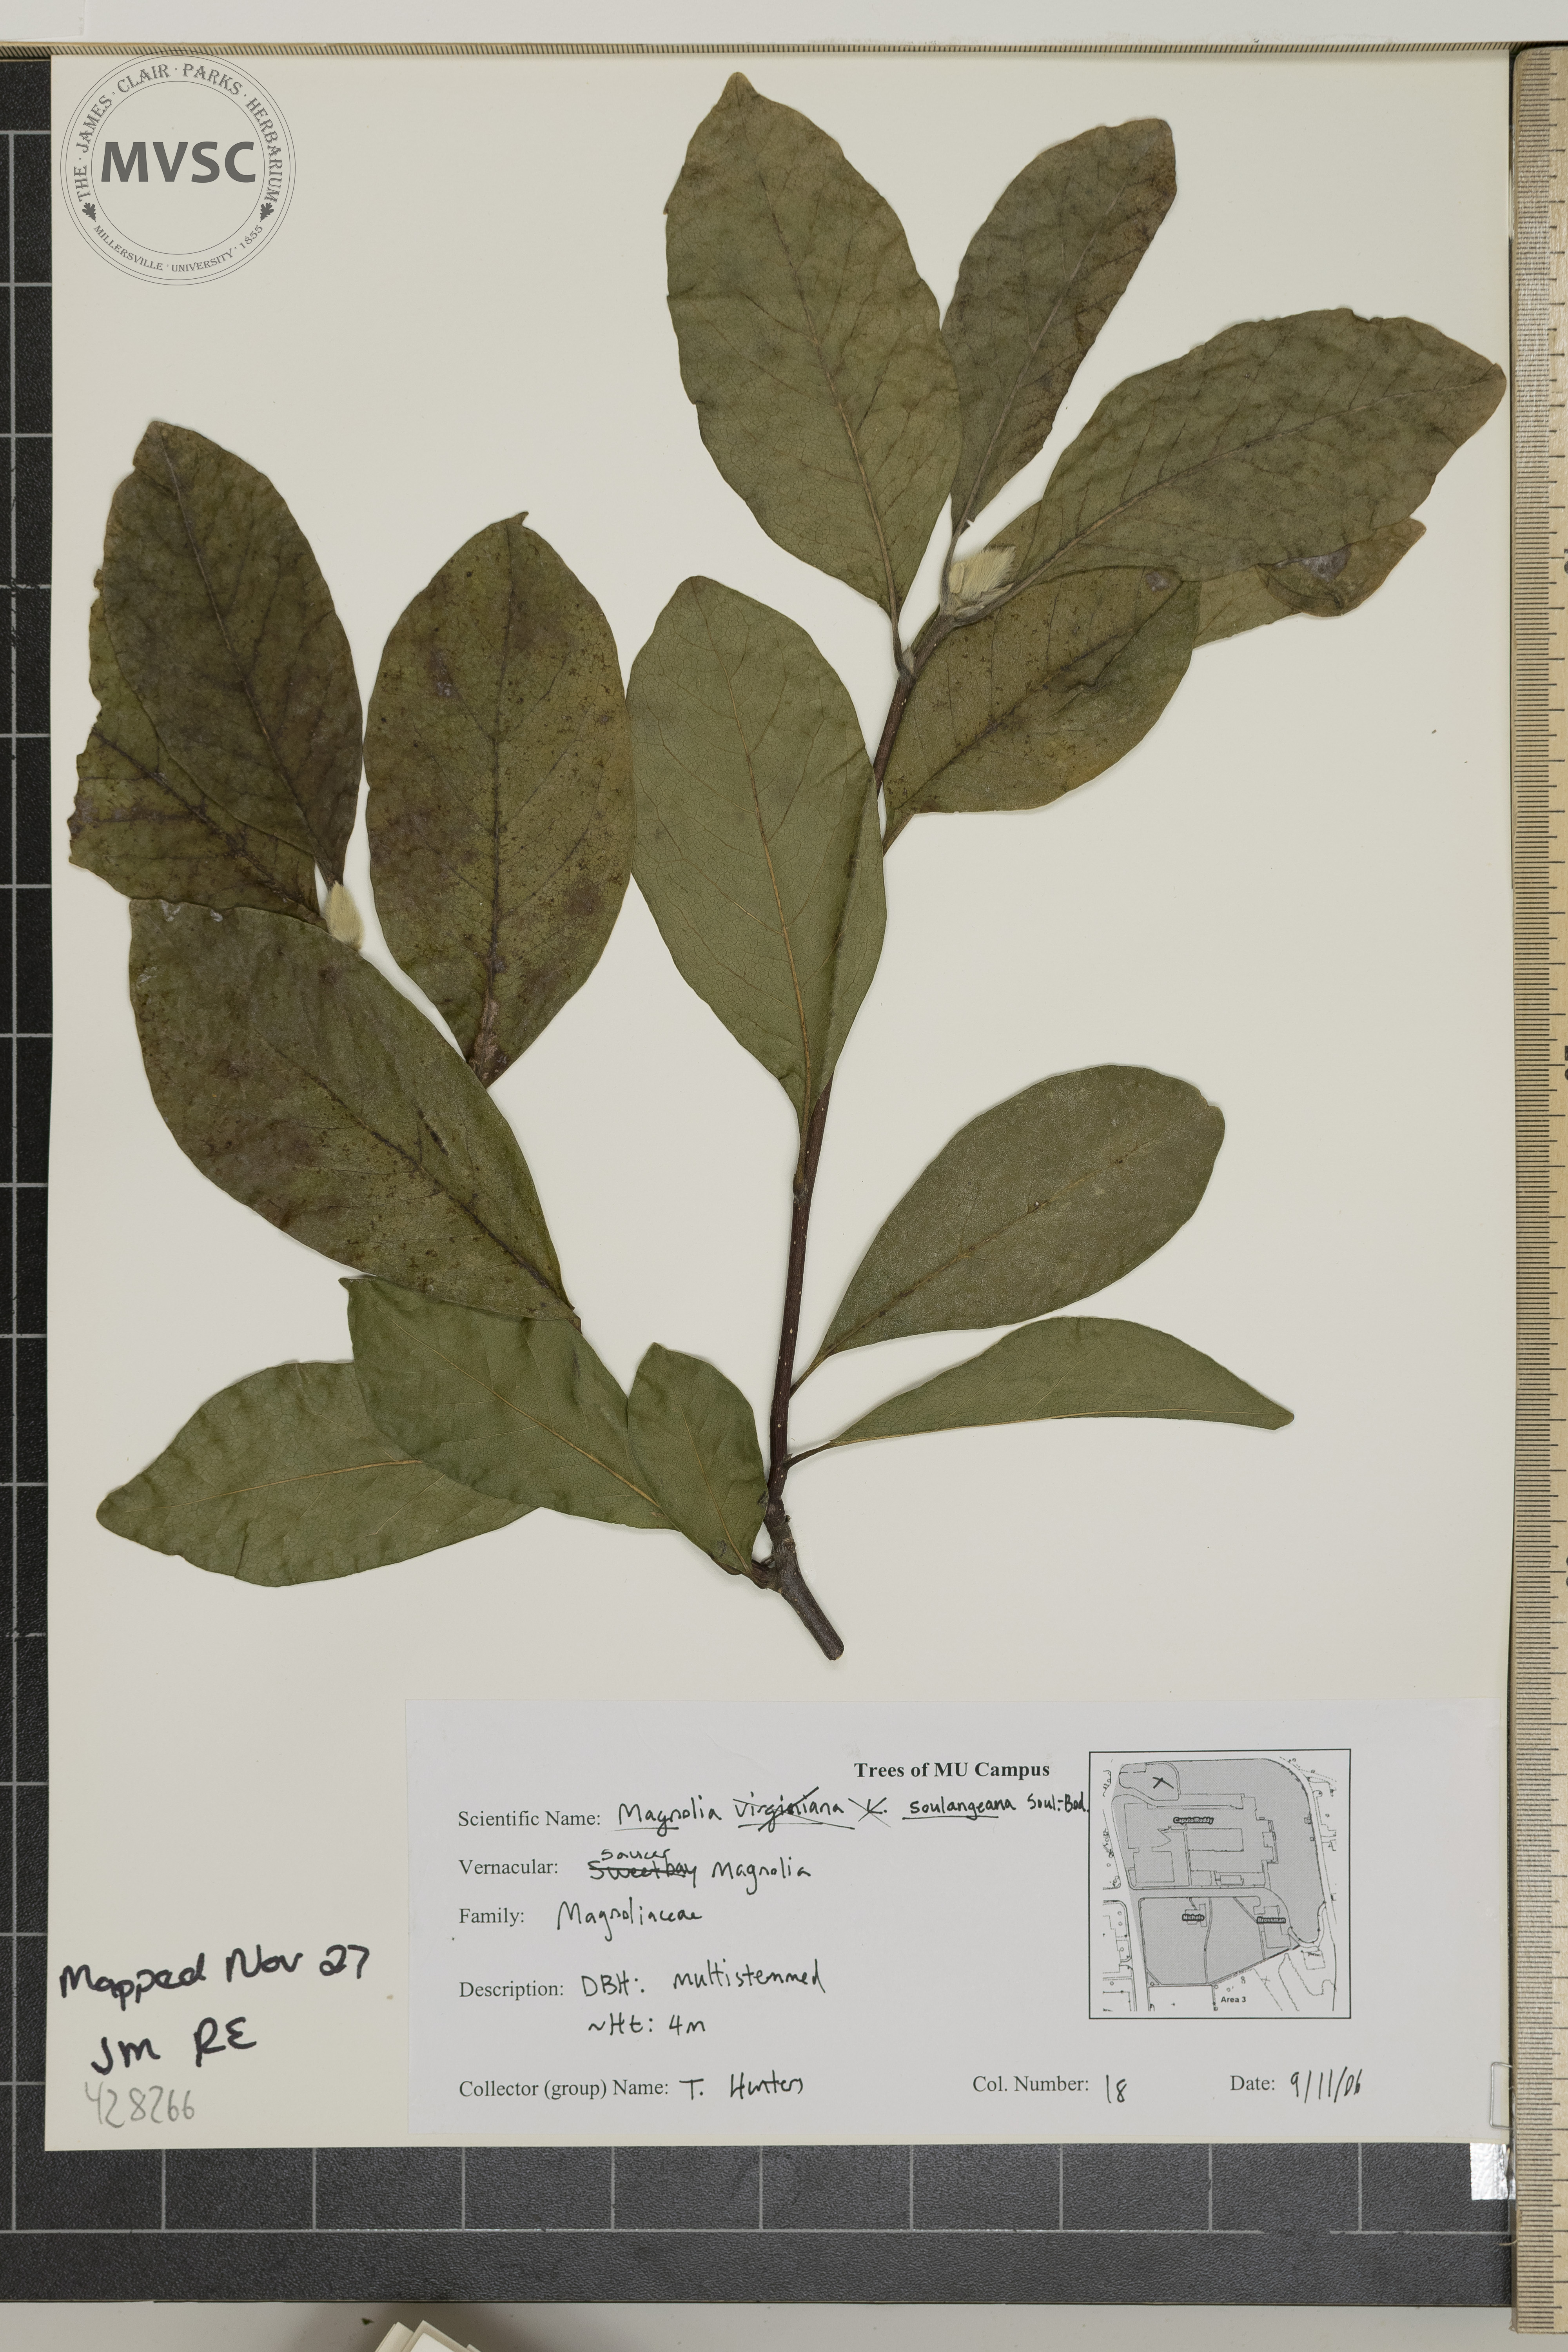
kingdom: Plantae
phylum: Tracheophyta
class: Magnoliopsida
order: Magnoliales
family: Magnoliaceae
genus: Magnolia
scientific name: Magnolia soulangeana
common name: Saucer Magnolia
